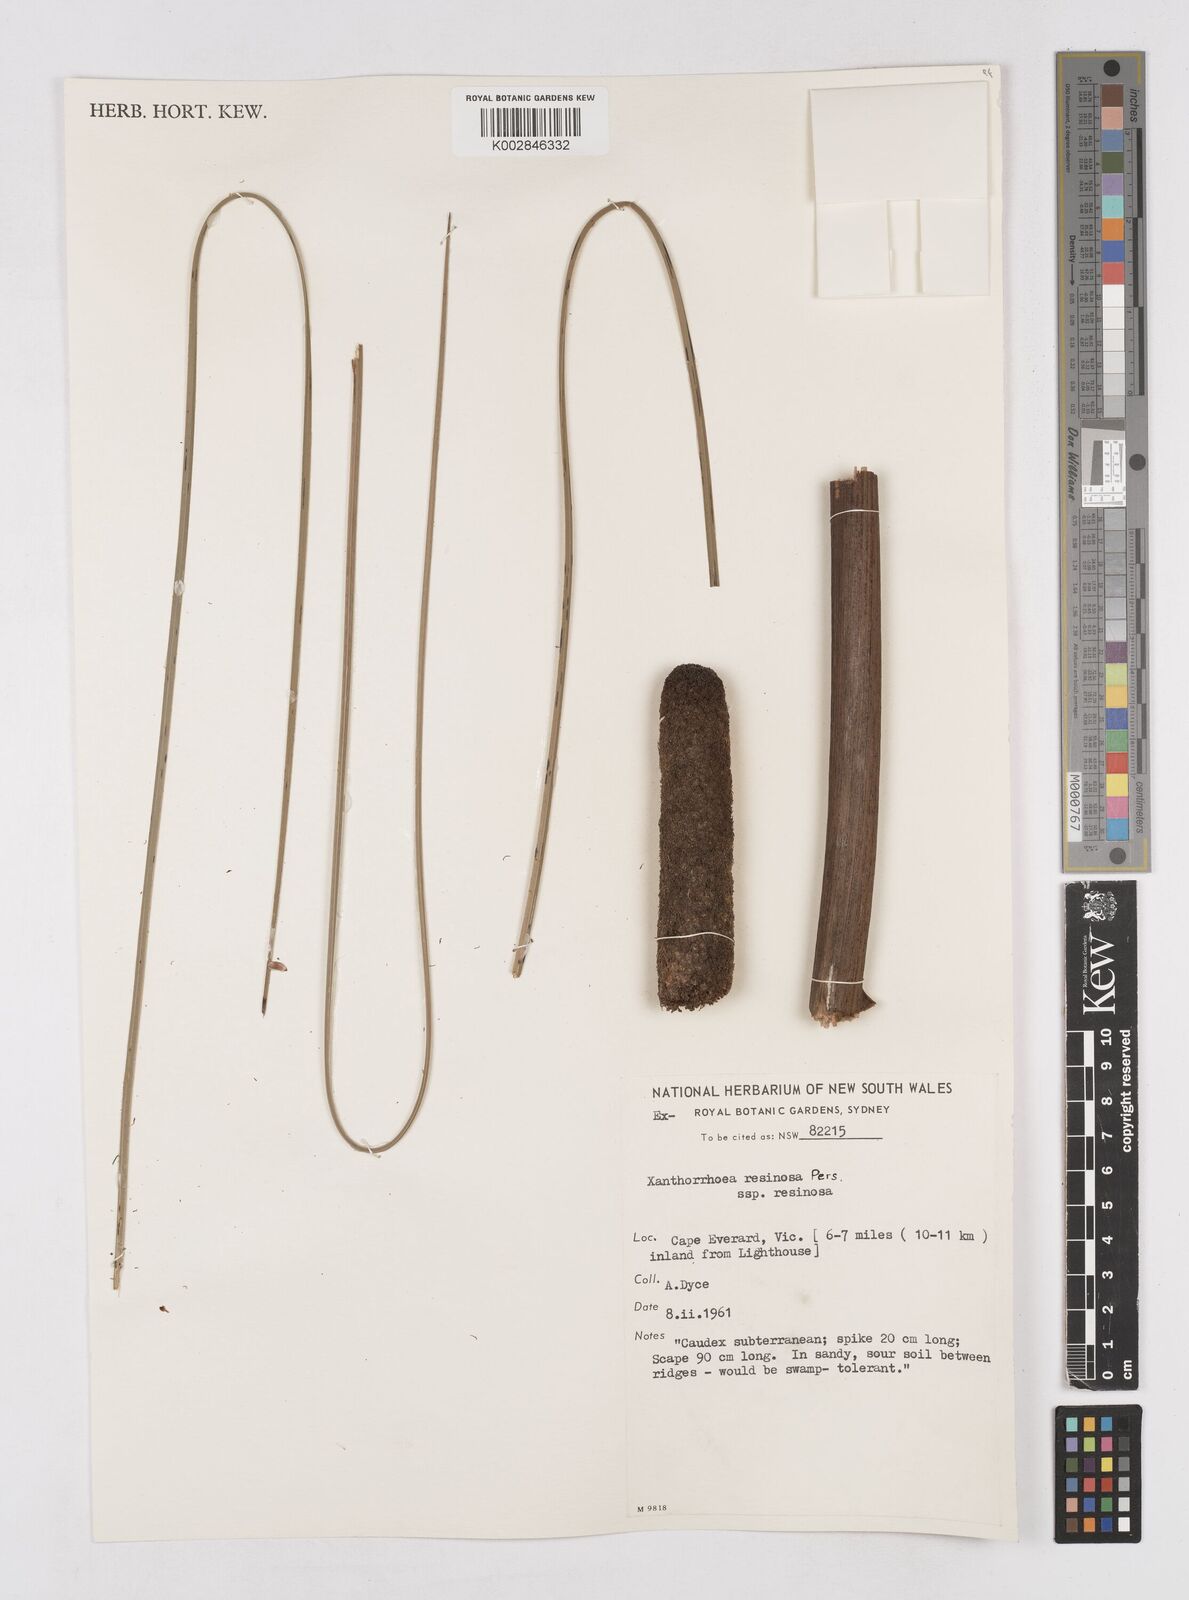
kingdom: Plantae
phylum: Tracheophyta
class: Liliopsida
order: Asparagales
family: Asphodelaceae
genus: Xanthorrhoea
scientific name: Xanthorrhoea
